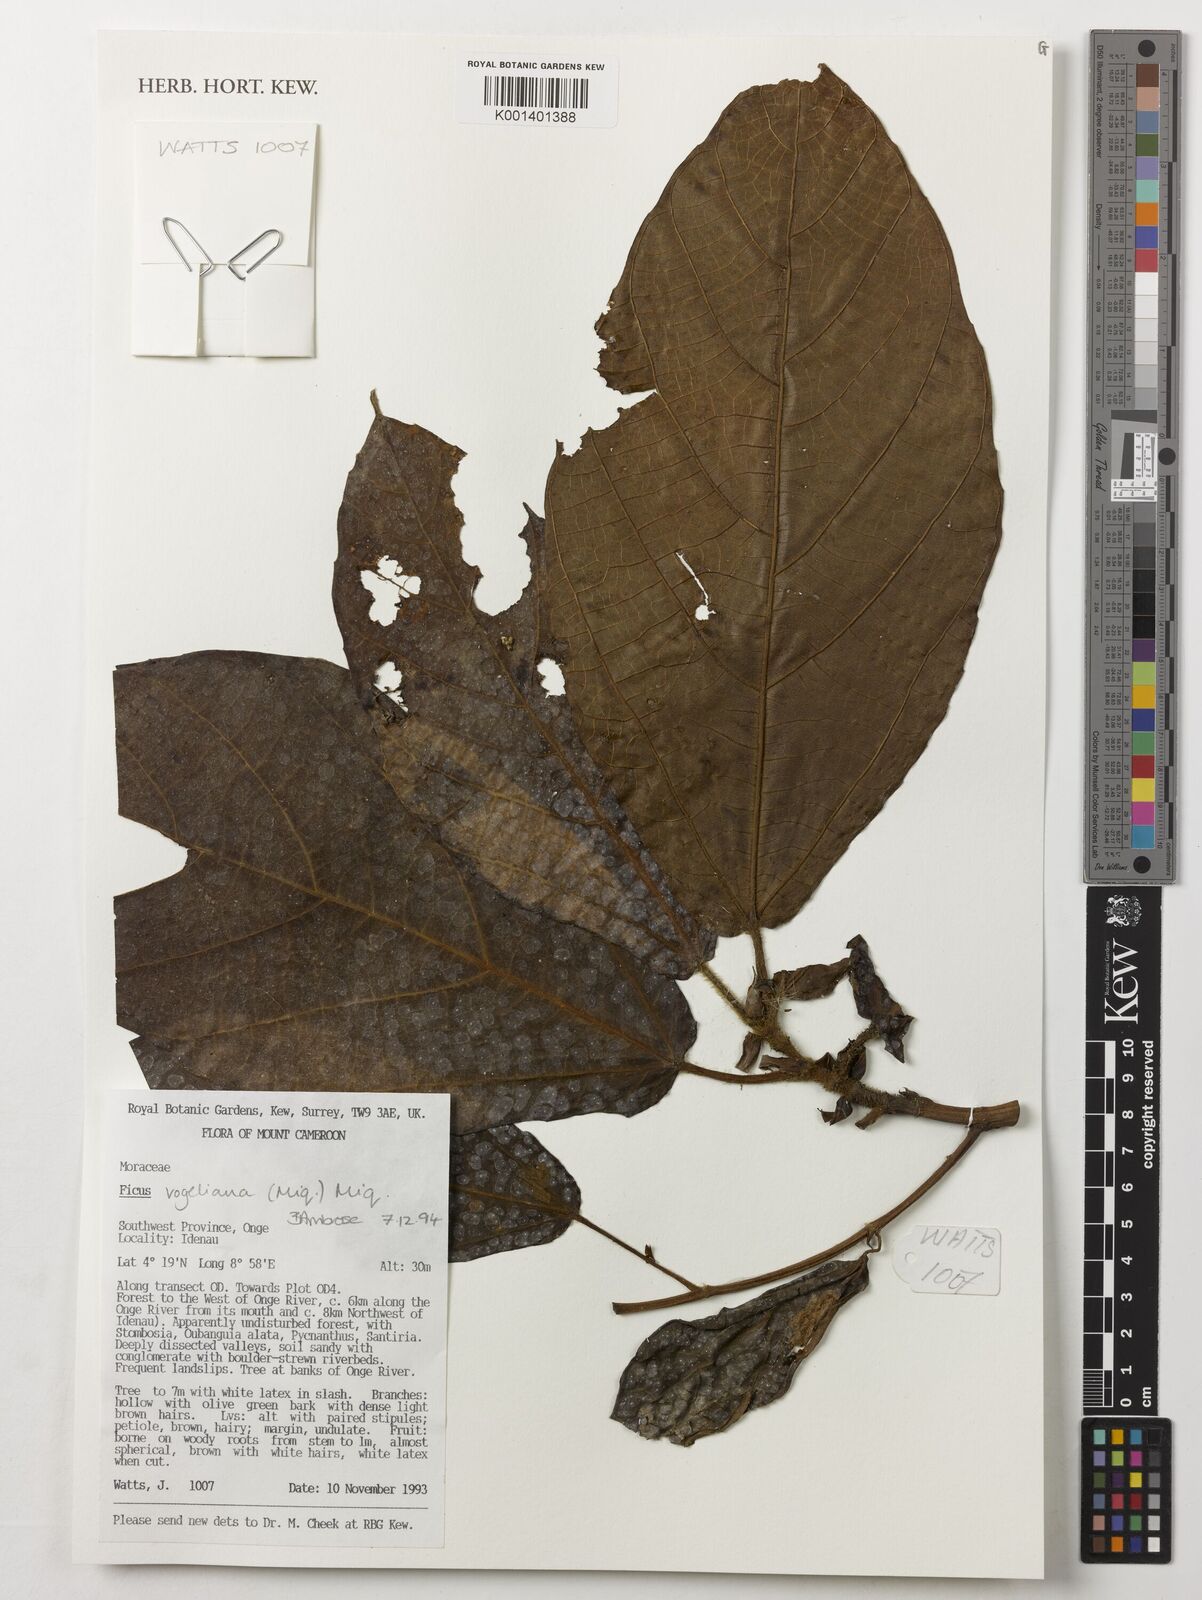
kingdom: Plantae
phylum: Tracheophyta
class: Magnoliopsida
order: Rosales
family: Moraceae
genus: Ficus
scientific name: Ficus vogeliana
